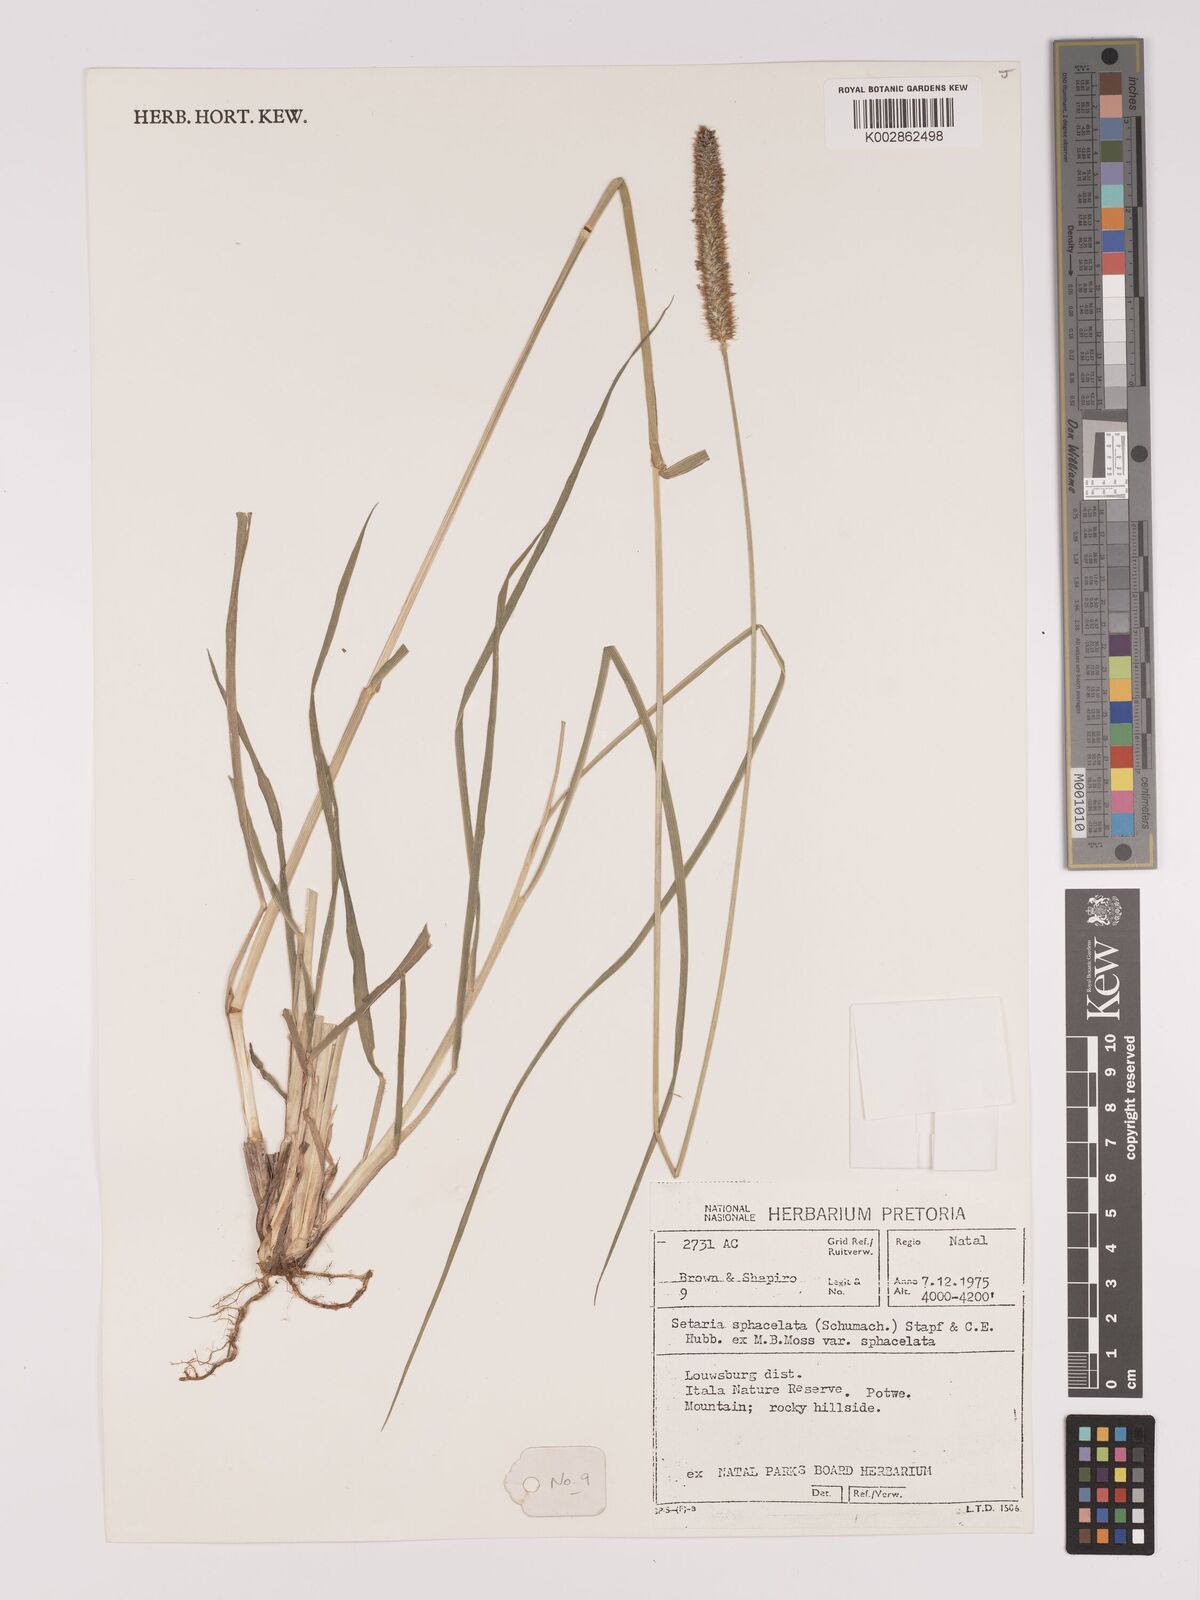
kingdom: Plantae
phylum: Tracheophyta
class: Liliopsida
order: Poales
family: Poaceae
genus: Setaria
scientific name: Setaria sphacelata
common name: African bristlegrass
